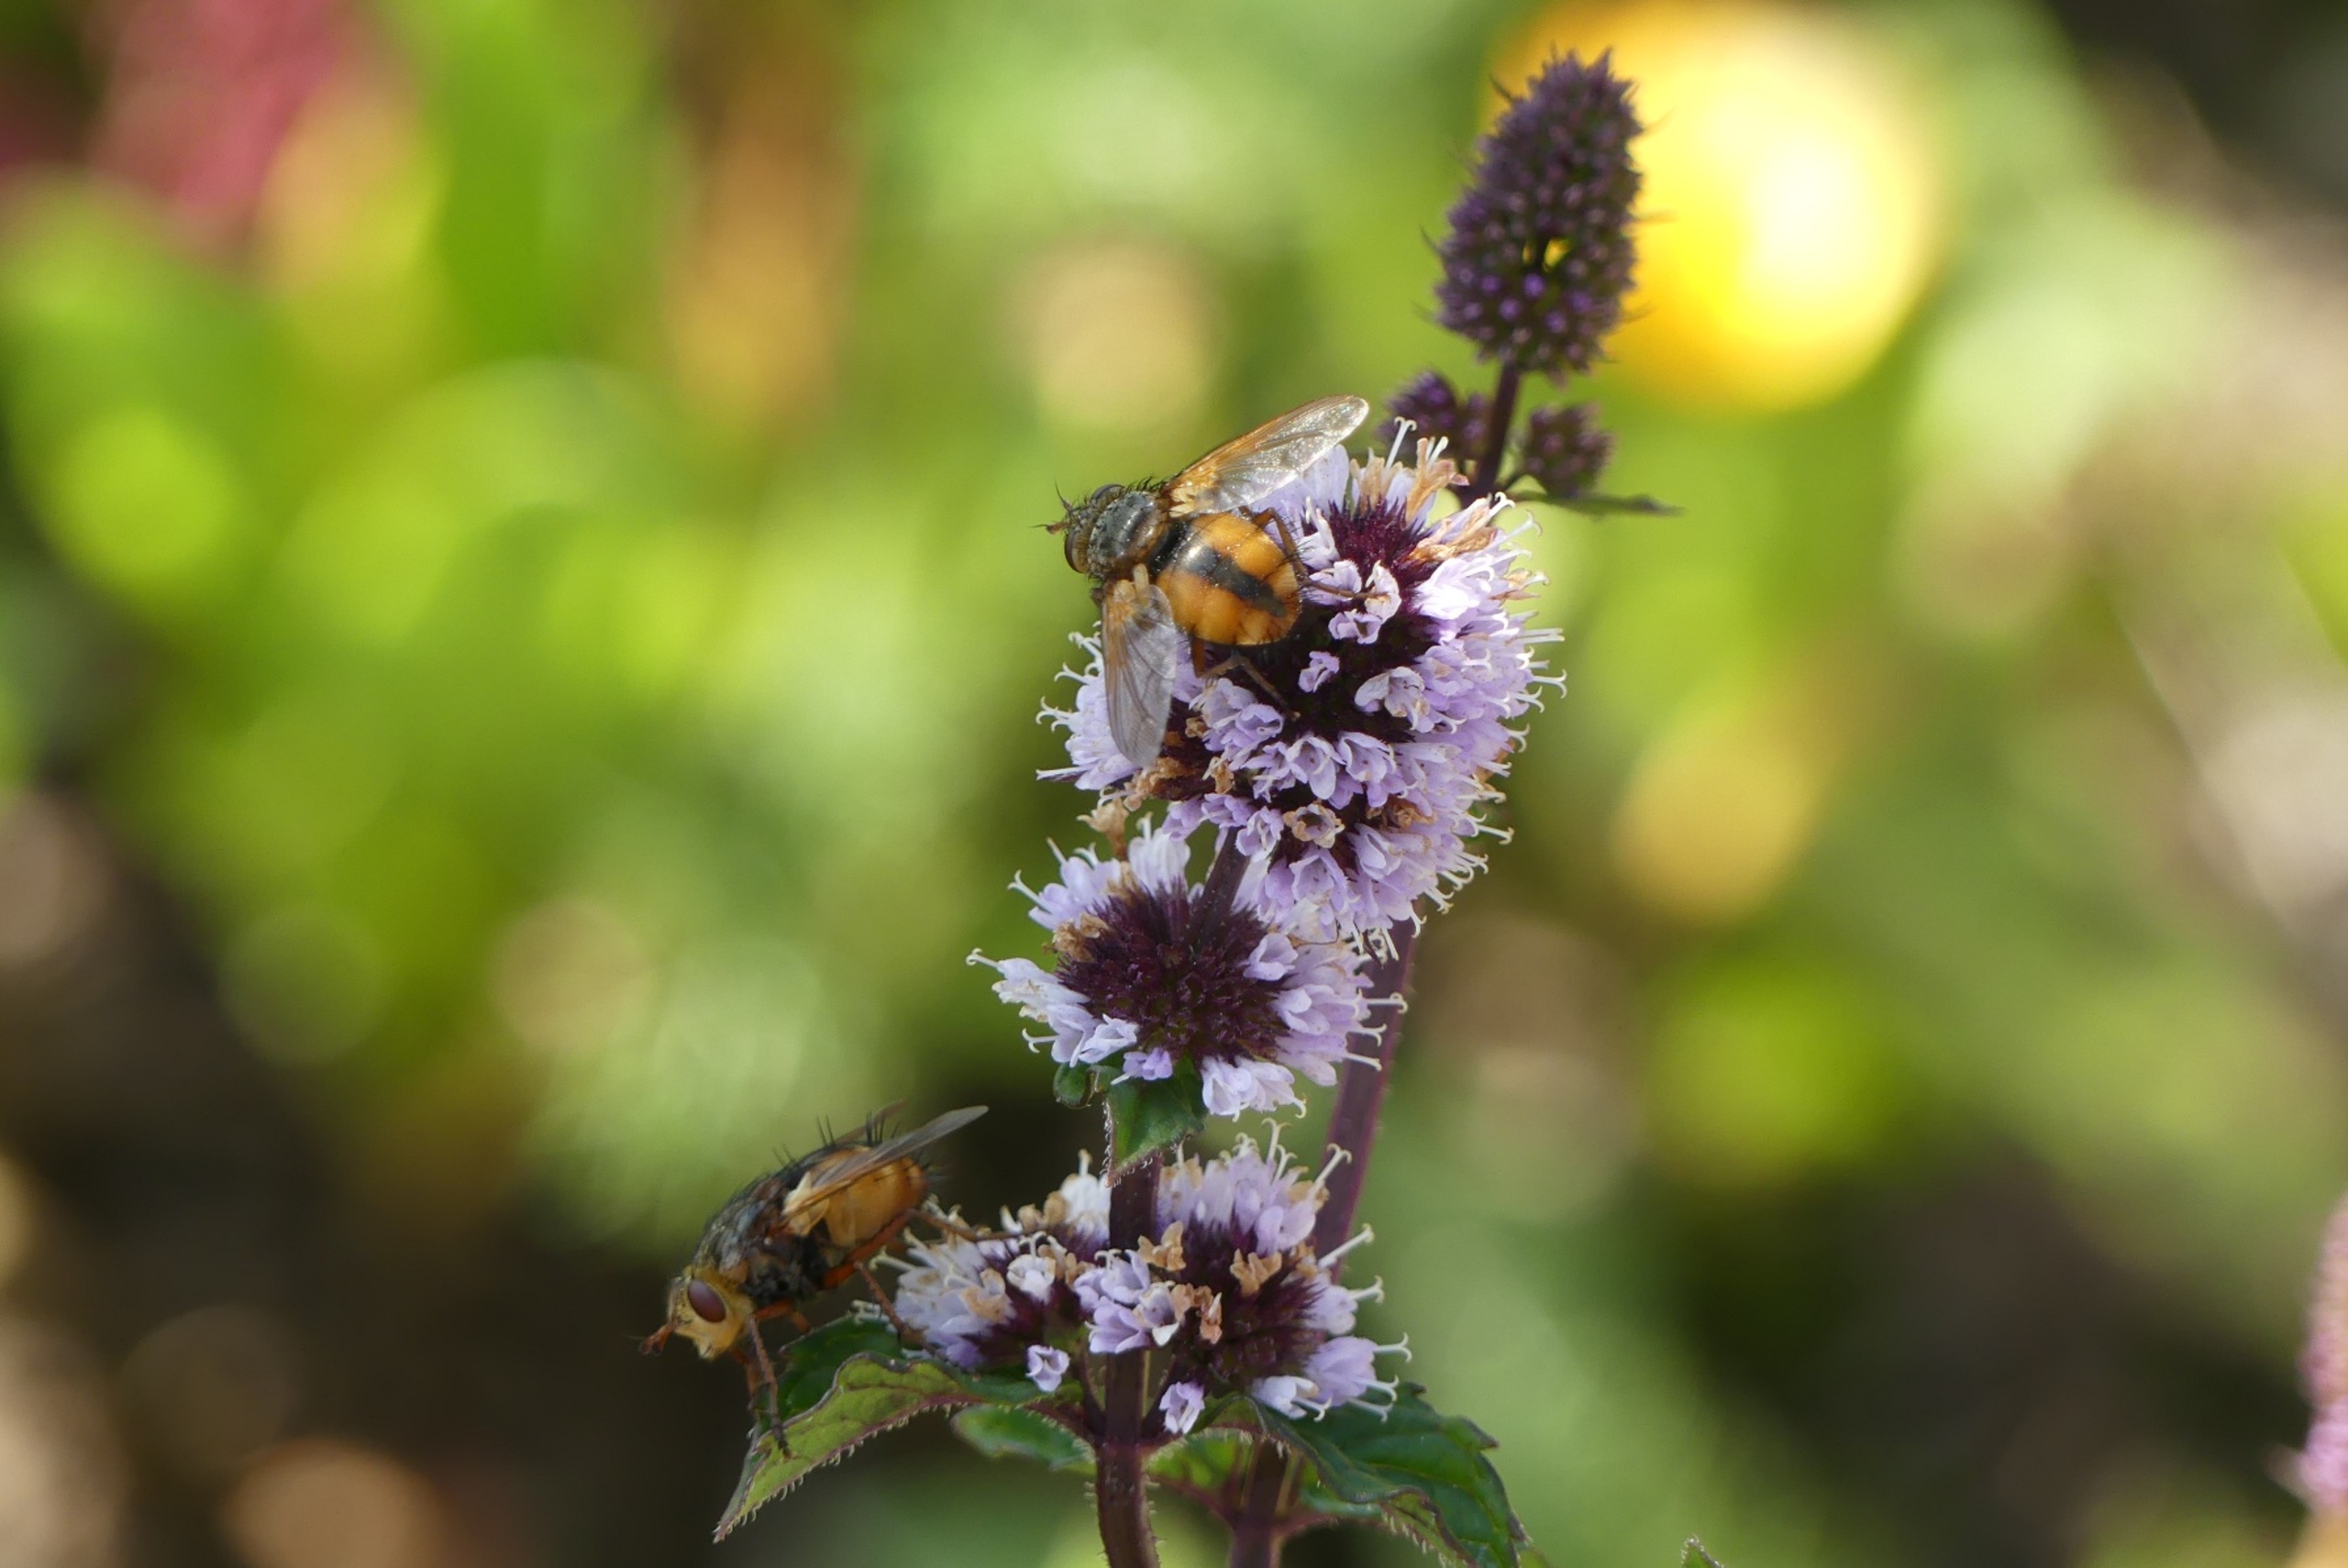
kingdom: Animalia
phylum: Arthropoda
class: Insecta
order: Diptera
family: Tachinidae
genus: Tachina
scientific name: Tachina fera
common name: Mellemfluen oskar
